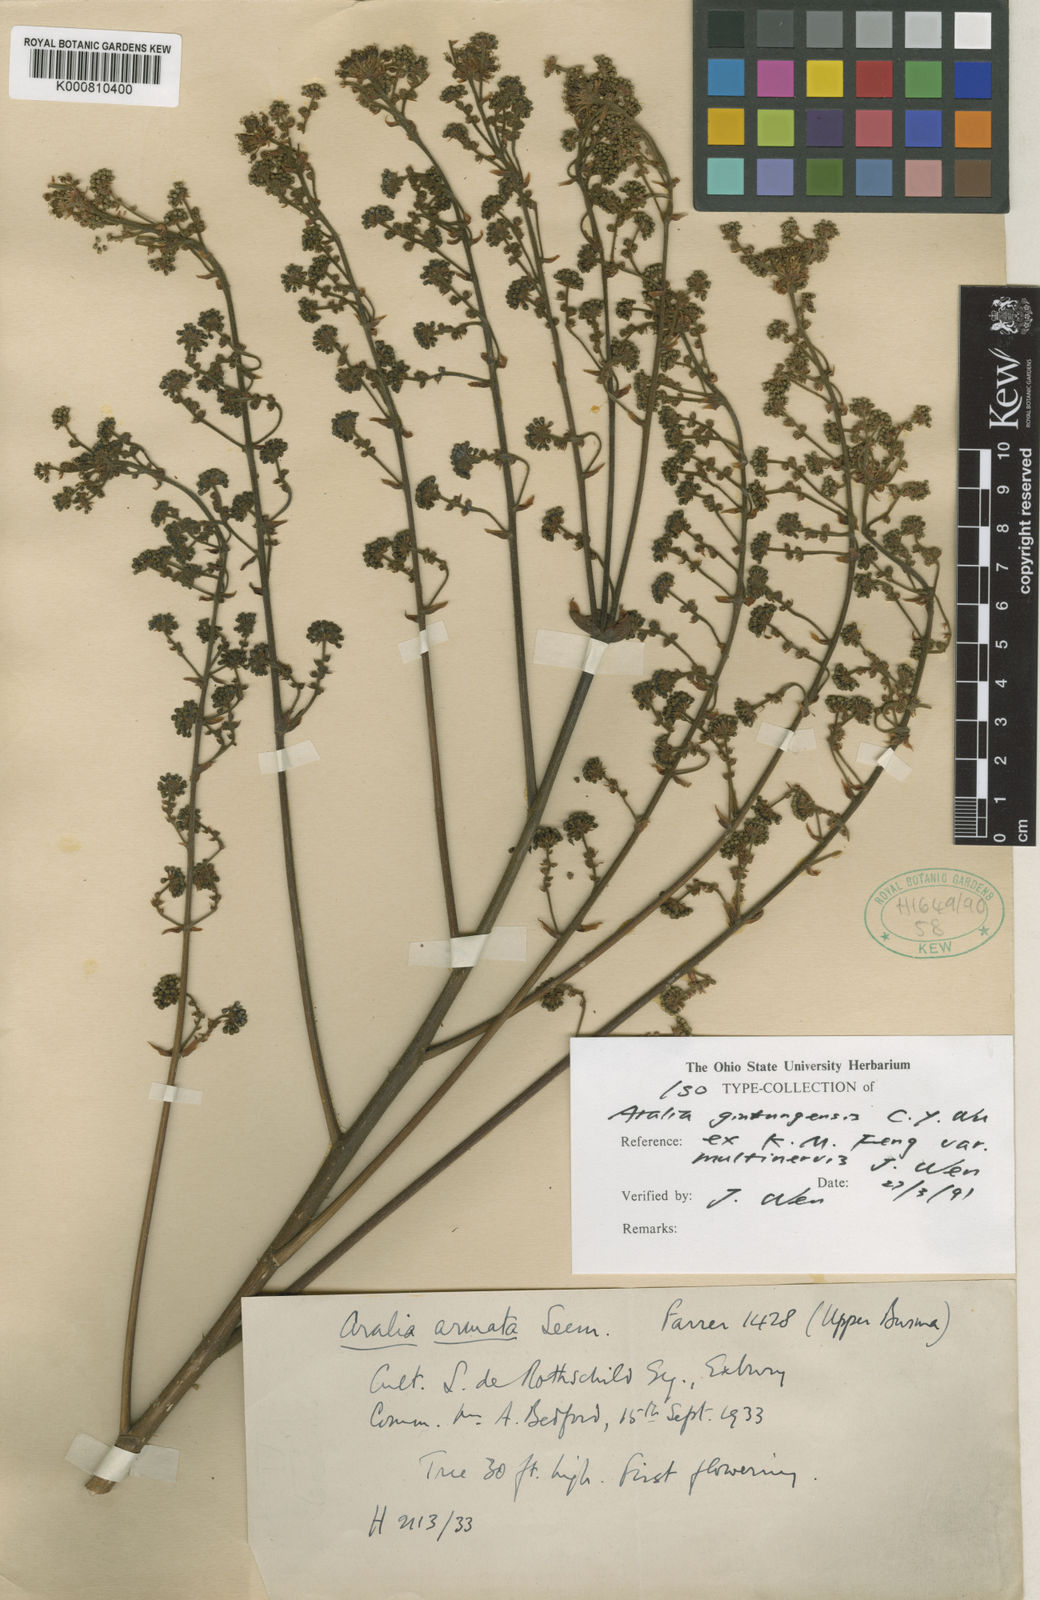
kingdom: Plantae
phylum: Tracheophyta
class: Magnoliopsida
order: Apiales
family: Araliaceae
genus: Aralia
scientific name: Aralia gintungensis
